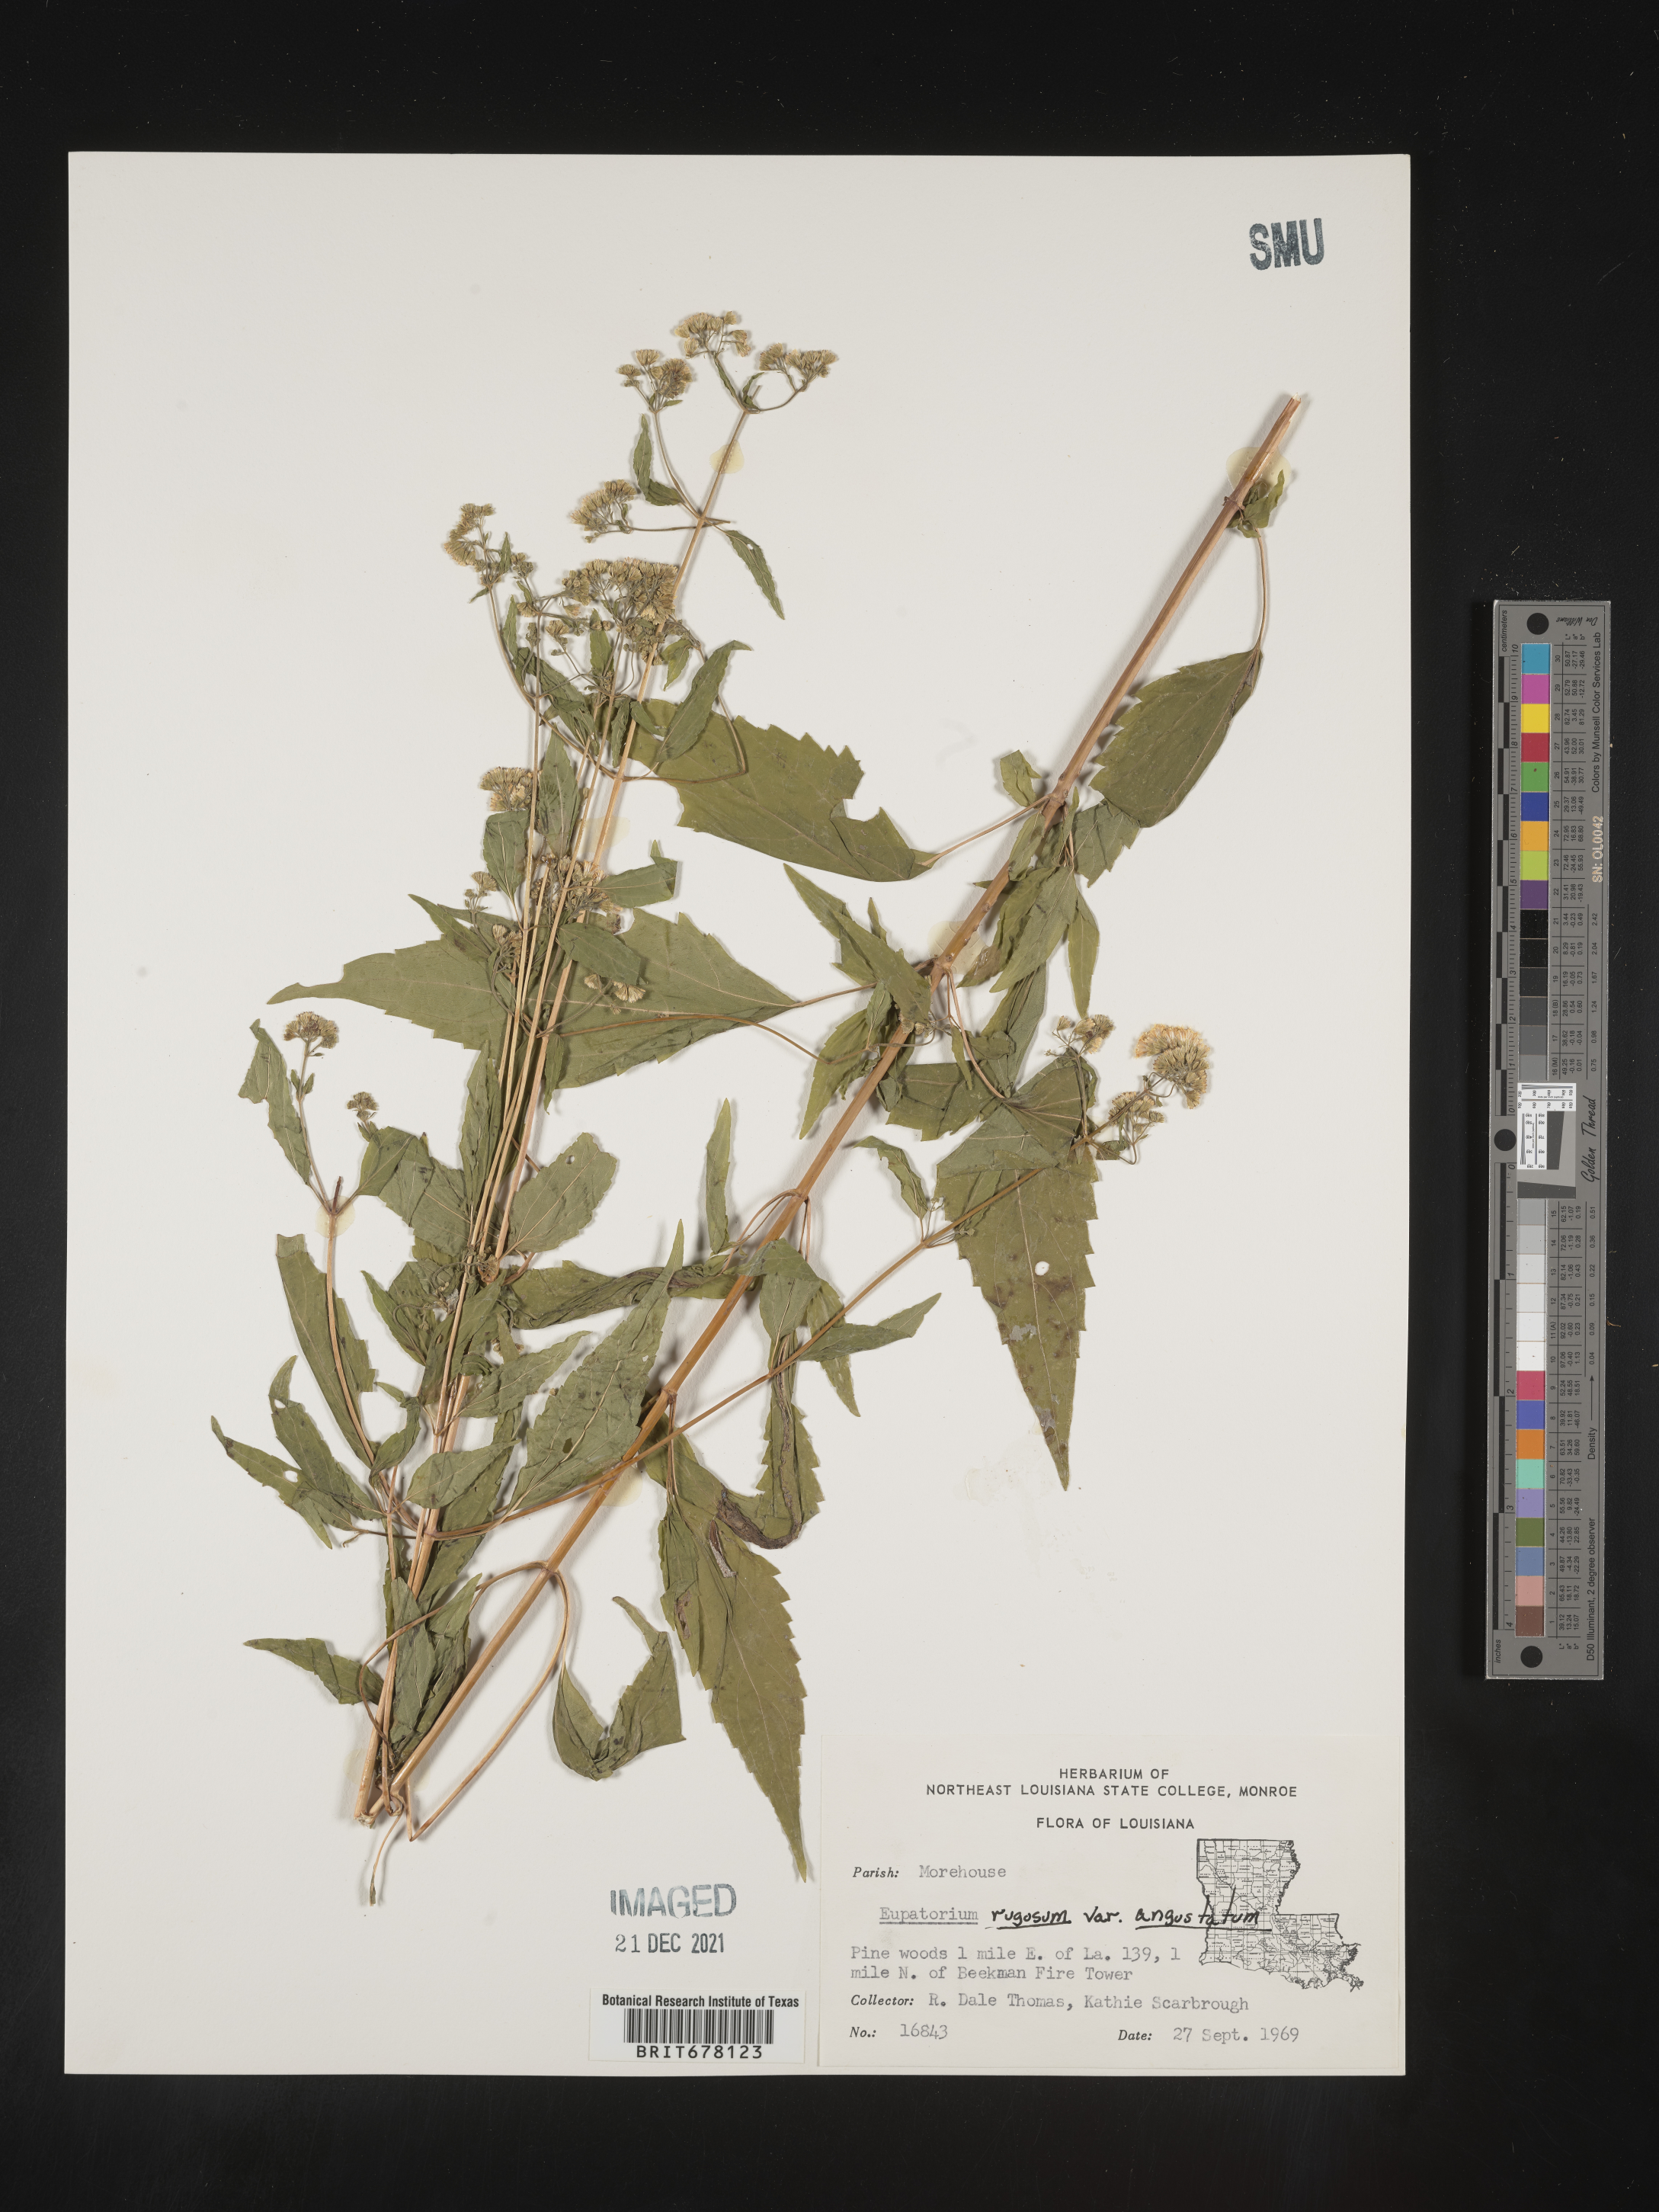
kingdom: Plantae
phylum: Tracheophyta
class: Magnoliopsida
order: Asterales
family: Asteraceae
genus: Eupatorium
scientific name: Eupatorium
